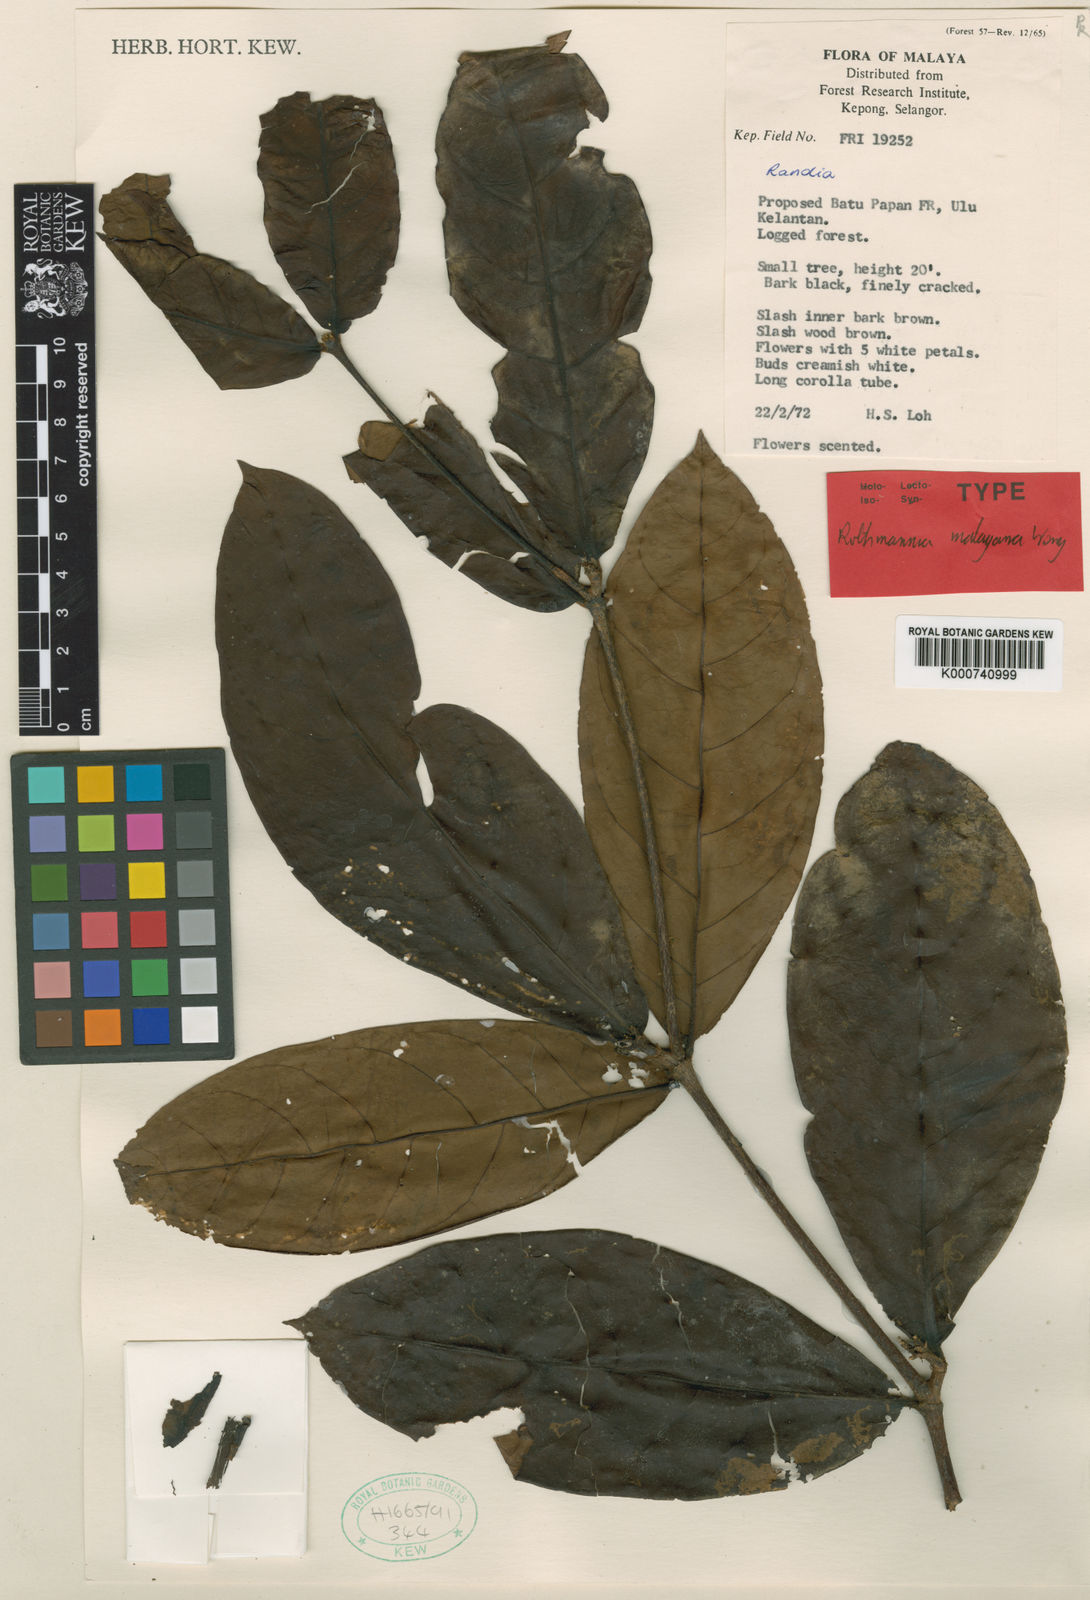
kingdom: Plantae
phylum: Tracheophyta
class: Magnoliopsida
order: Gentianales
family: Rubiaceae
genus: Ridsdalea
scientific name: Ridsdalea grandis
